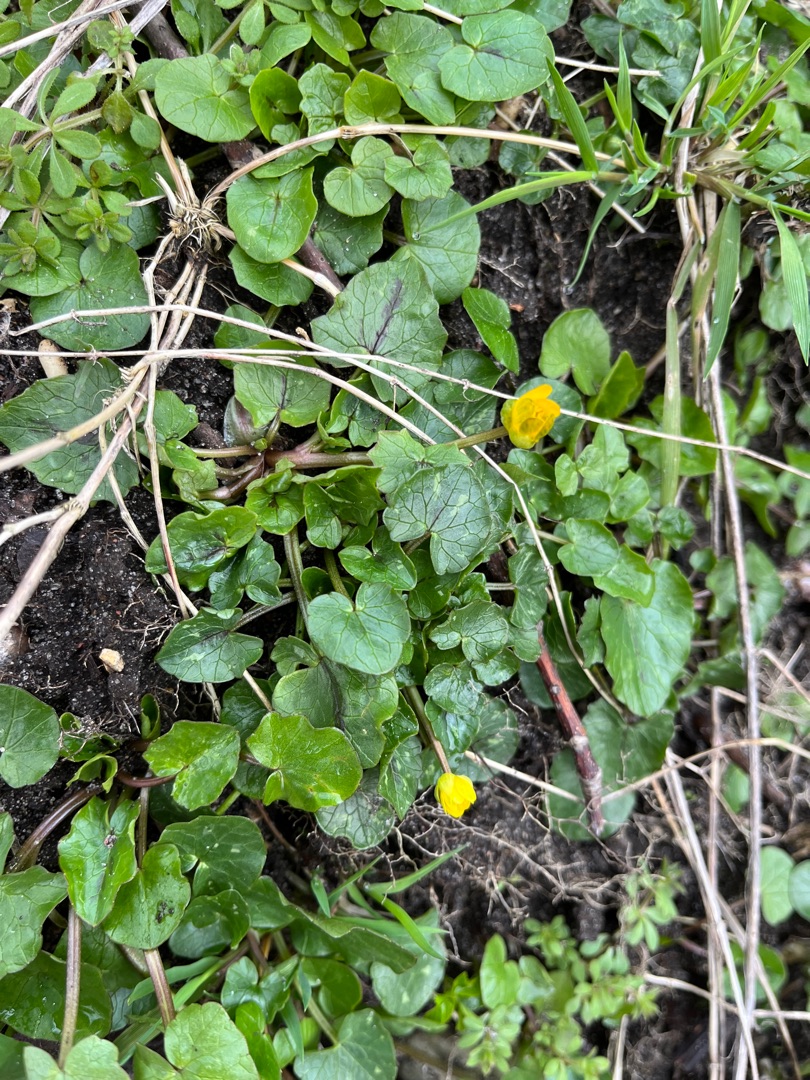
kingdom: Plantae
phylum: Tracheophyta
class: Magnoliopsida
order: Ranunculales
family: Ranunculaceae
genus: Ficaria
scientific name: Ficaria verna
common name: Vorterod
